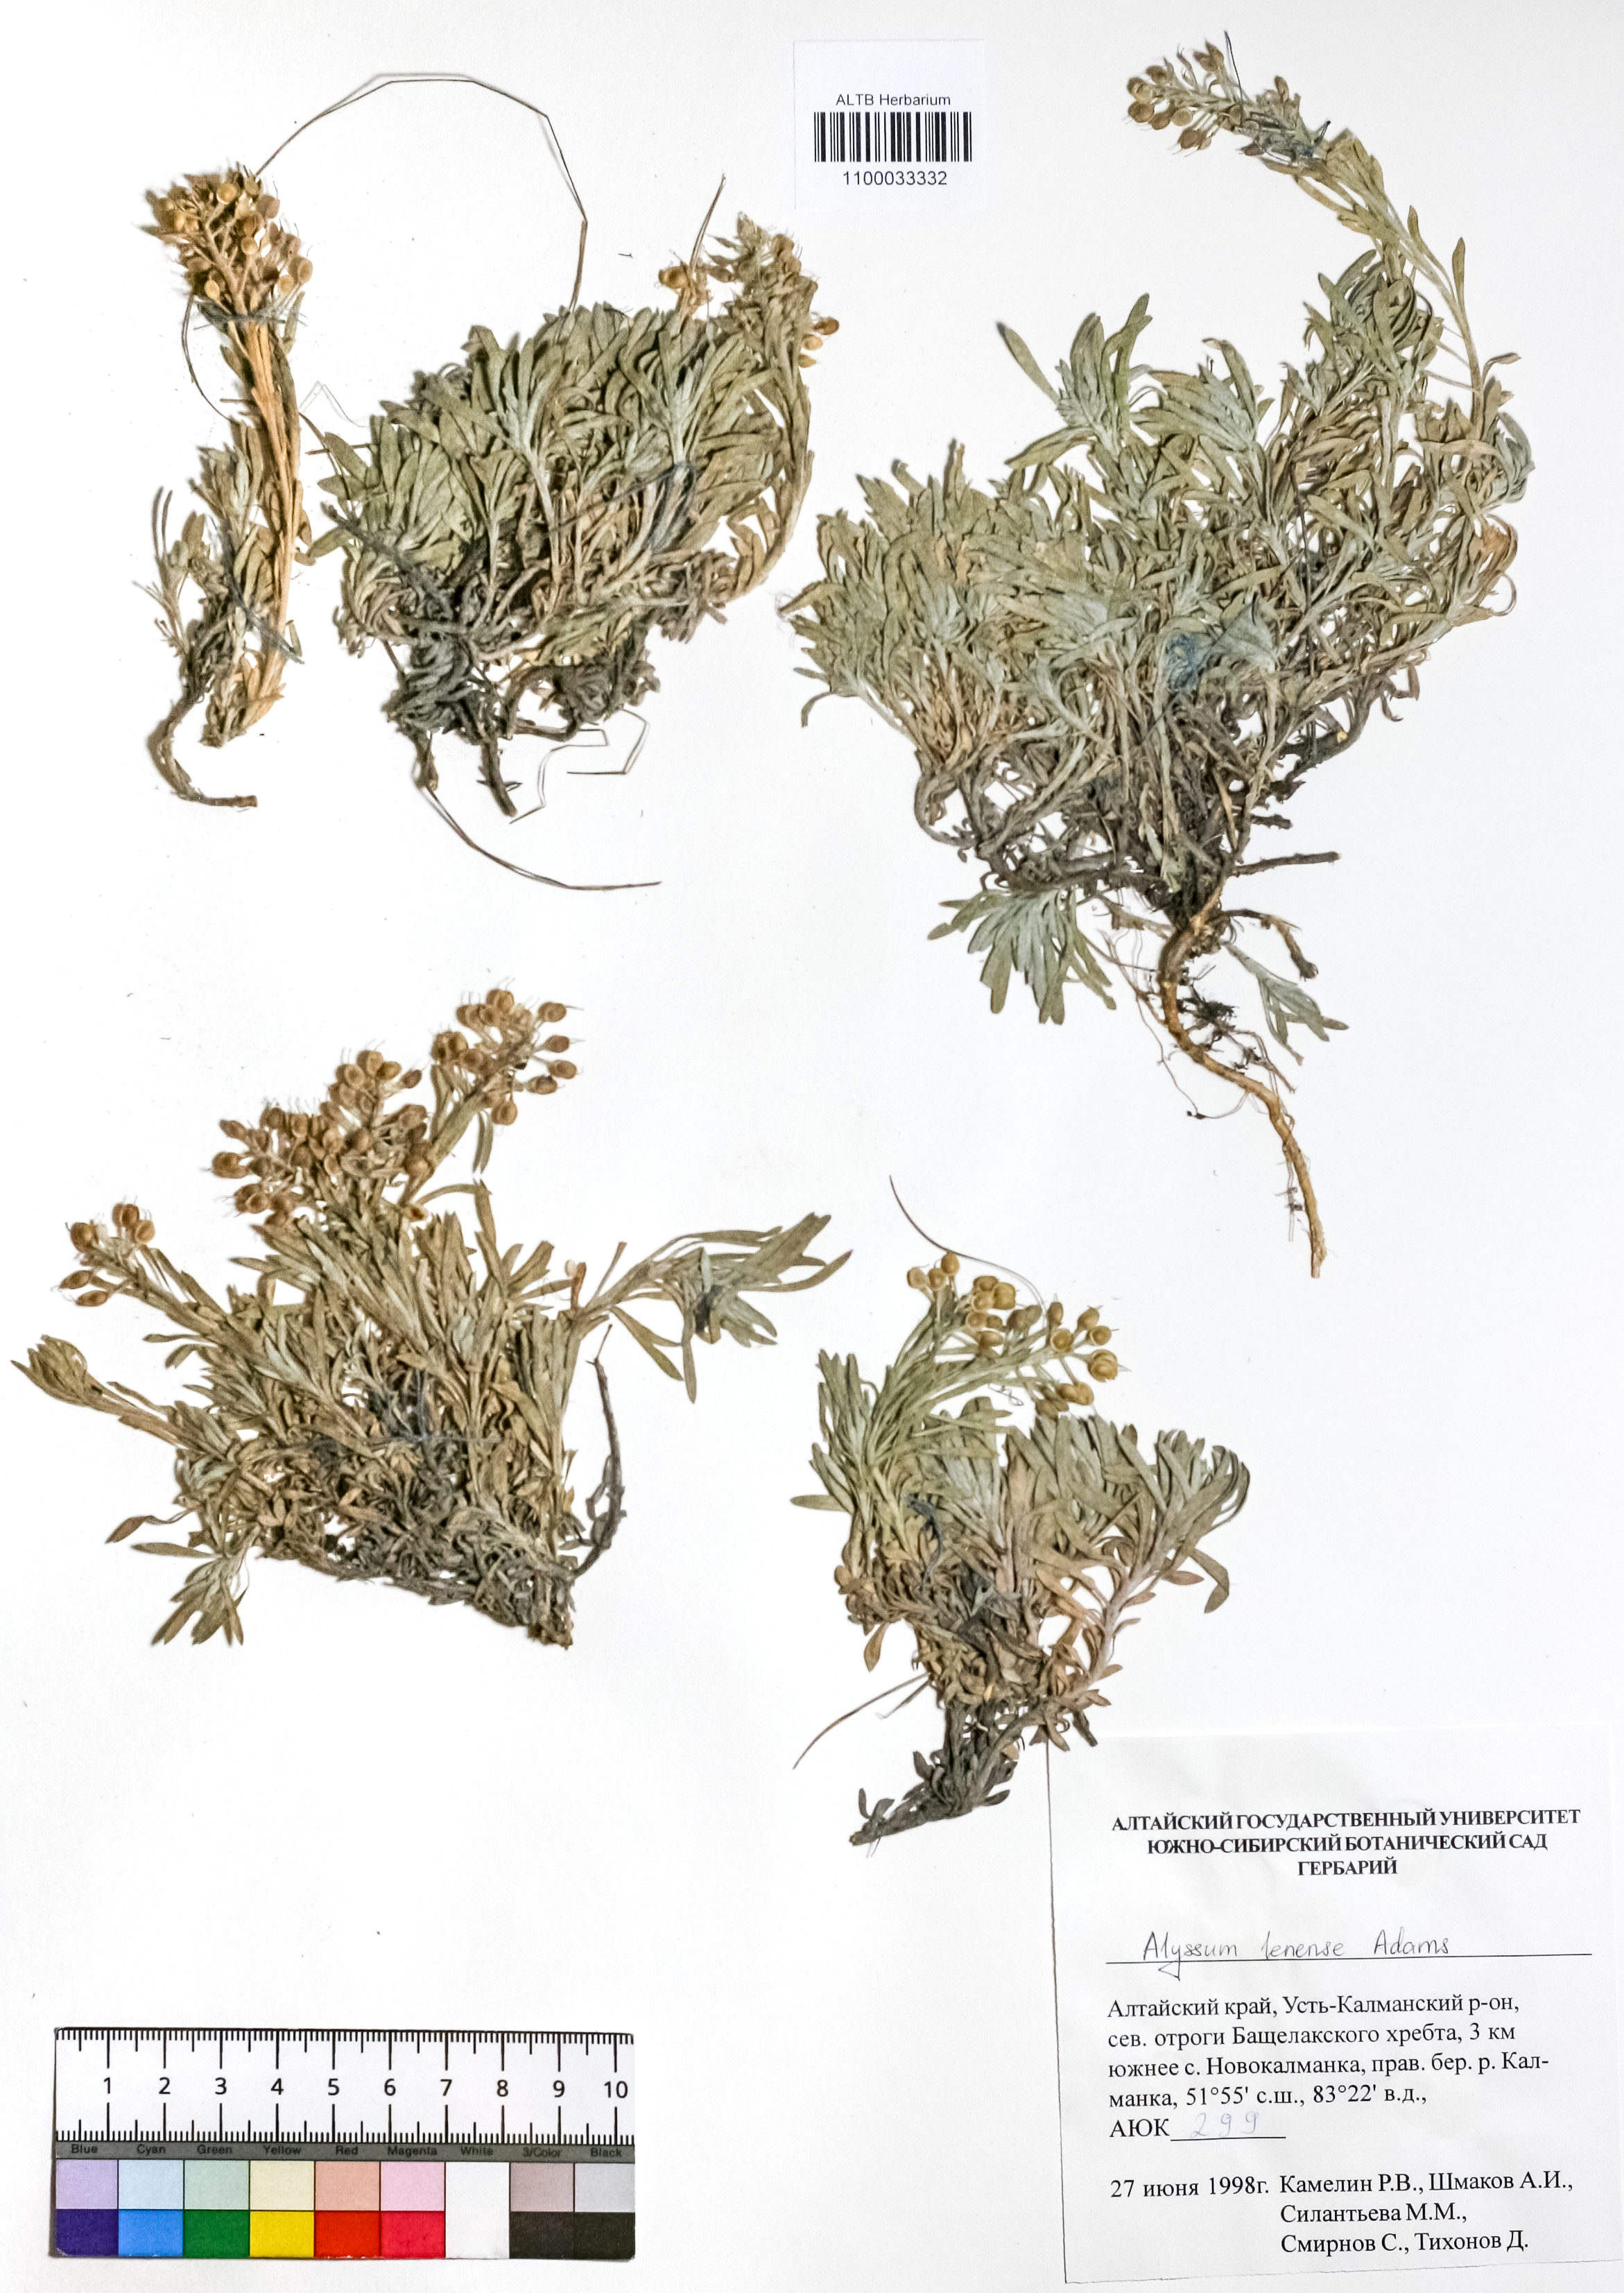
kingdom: Plantae
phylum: Tracheophyta
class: Magnoliopsida
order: Brassicales
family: Brassicaceae
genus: Alyssum
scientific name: Alyssum lenense
